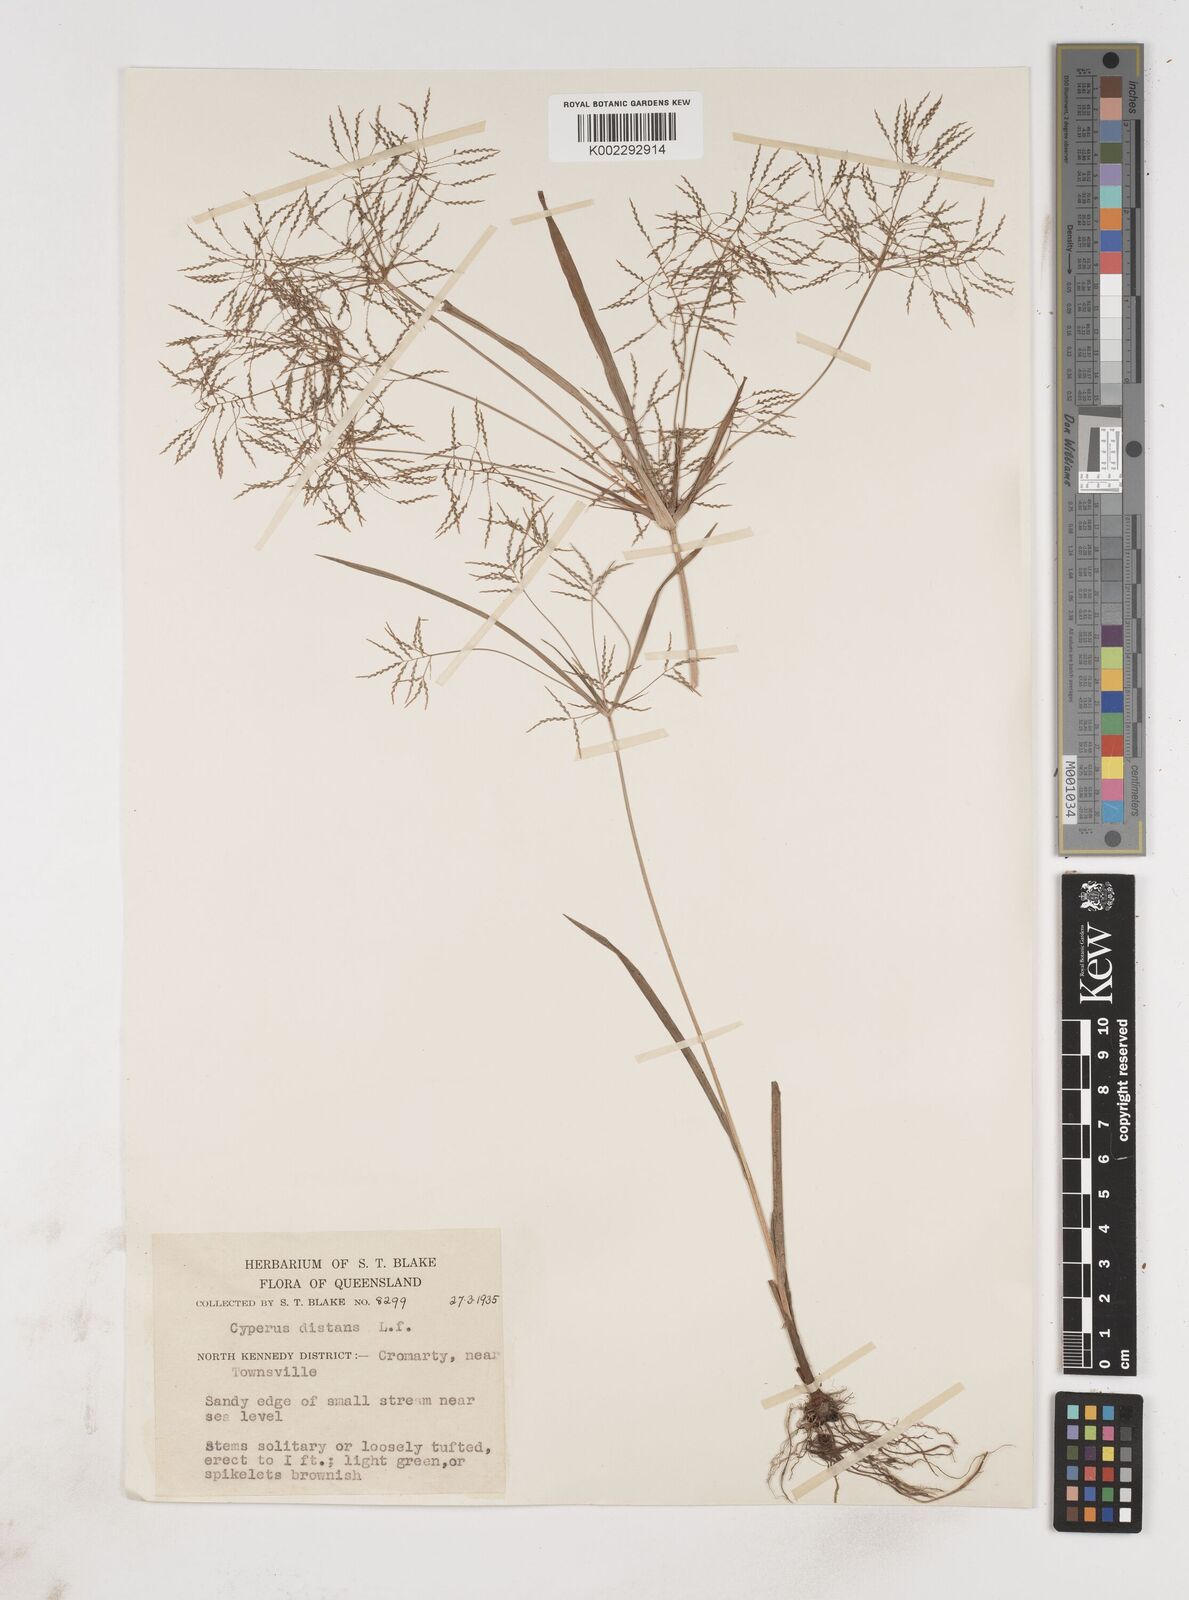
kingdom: Plantae
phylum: Tracheophyta
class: Liliopsida
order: Poales
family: Cyperaceae
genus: Cyperus
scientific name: Cyperus distans
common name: Slender cyperus
